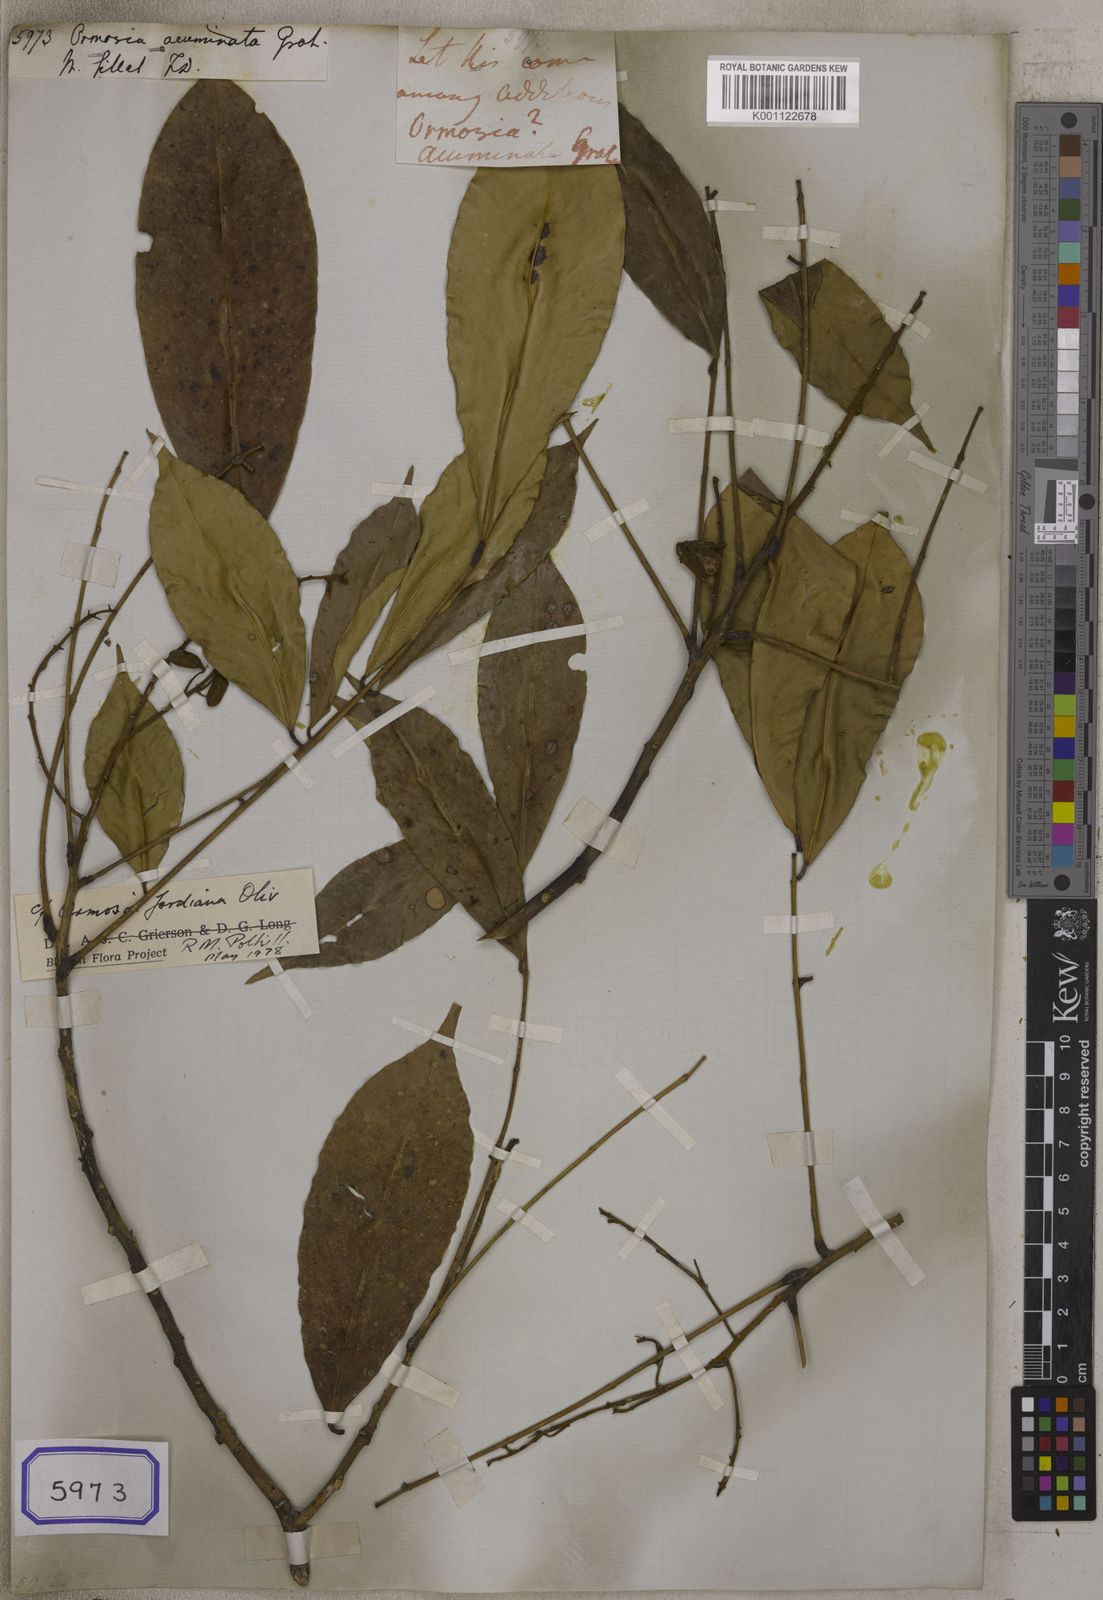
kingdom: Plantae
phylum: Tracheophyta
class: Magnoliopsida
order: Fabales
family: Fabaceae
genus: Ormosia
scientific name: Ormosia acuminata
